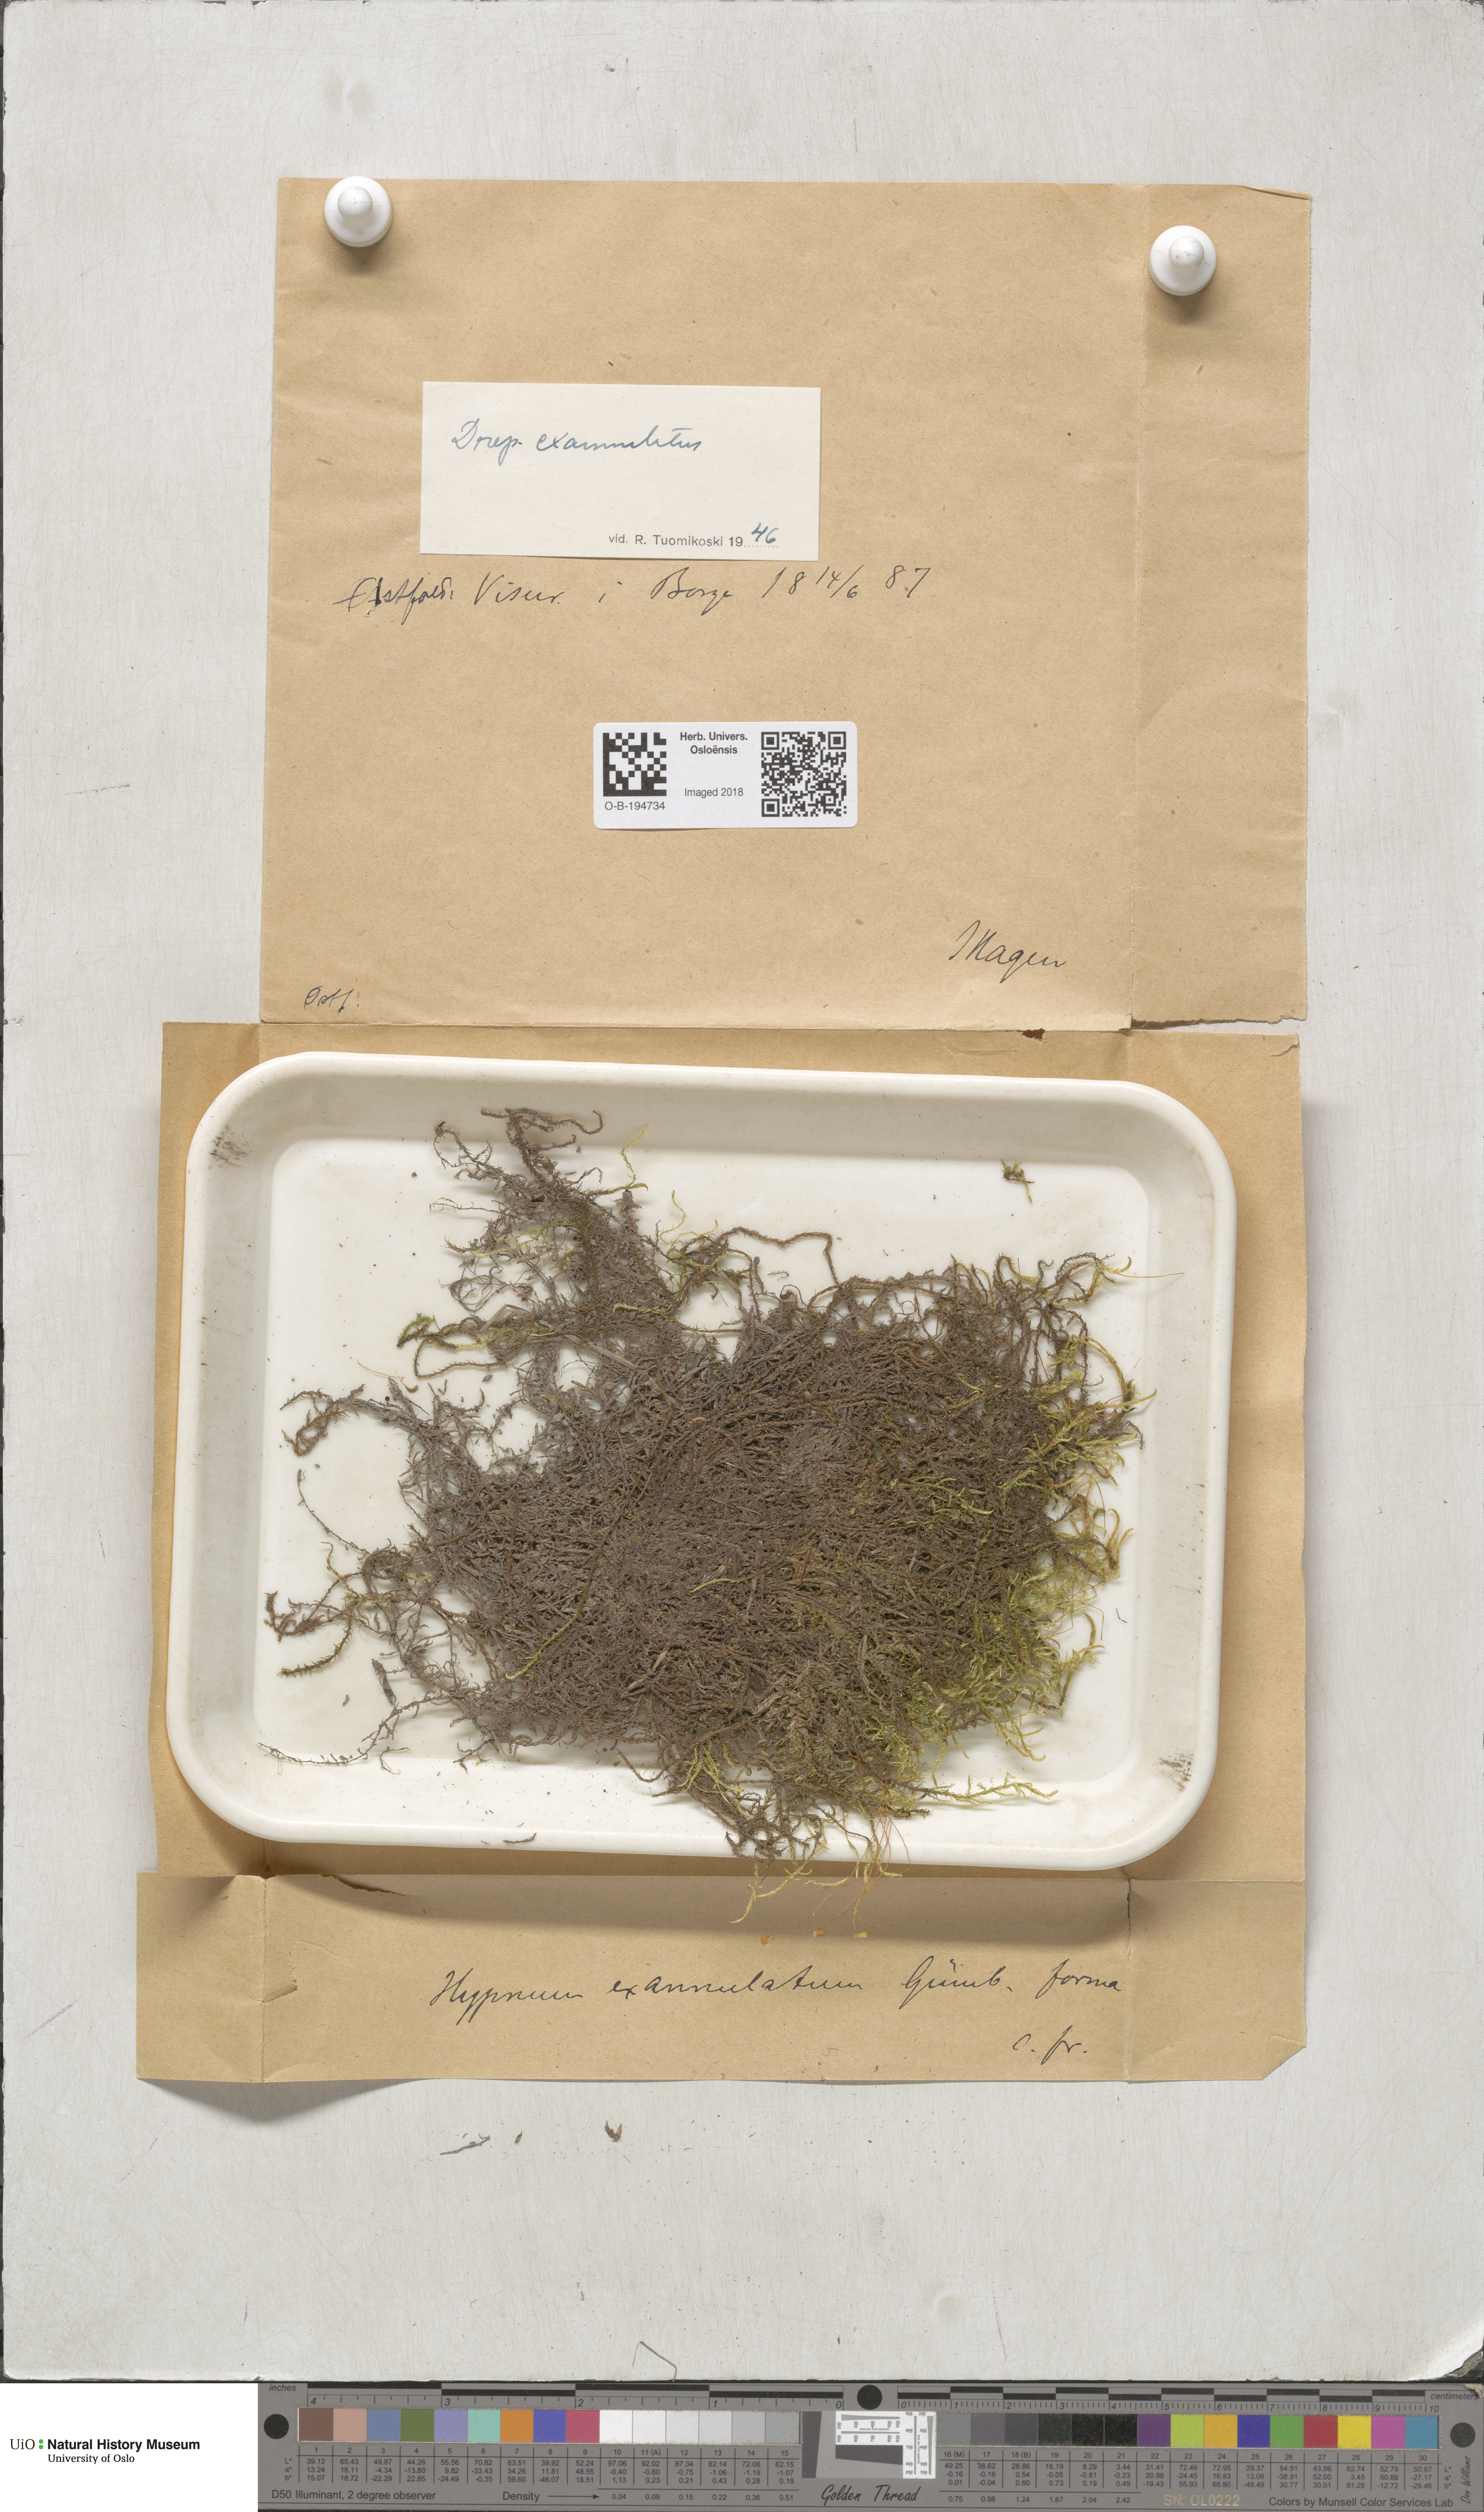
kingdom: Plantae
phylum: Bryophyta
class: Bryopsida
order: Hypnales
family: Calliergonaceae
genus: Sarmentypnum
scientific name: Sarmentypnum exannulatum
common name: Ringless spoon moss
